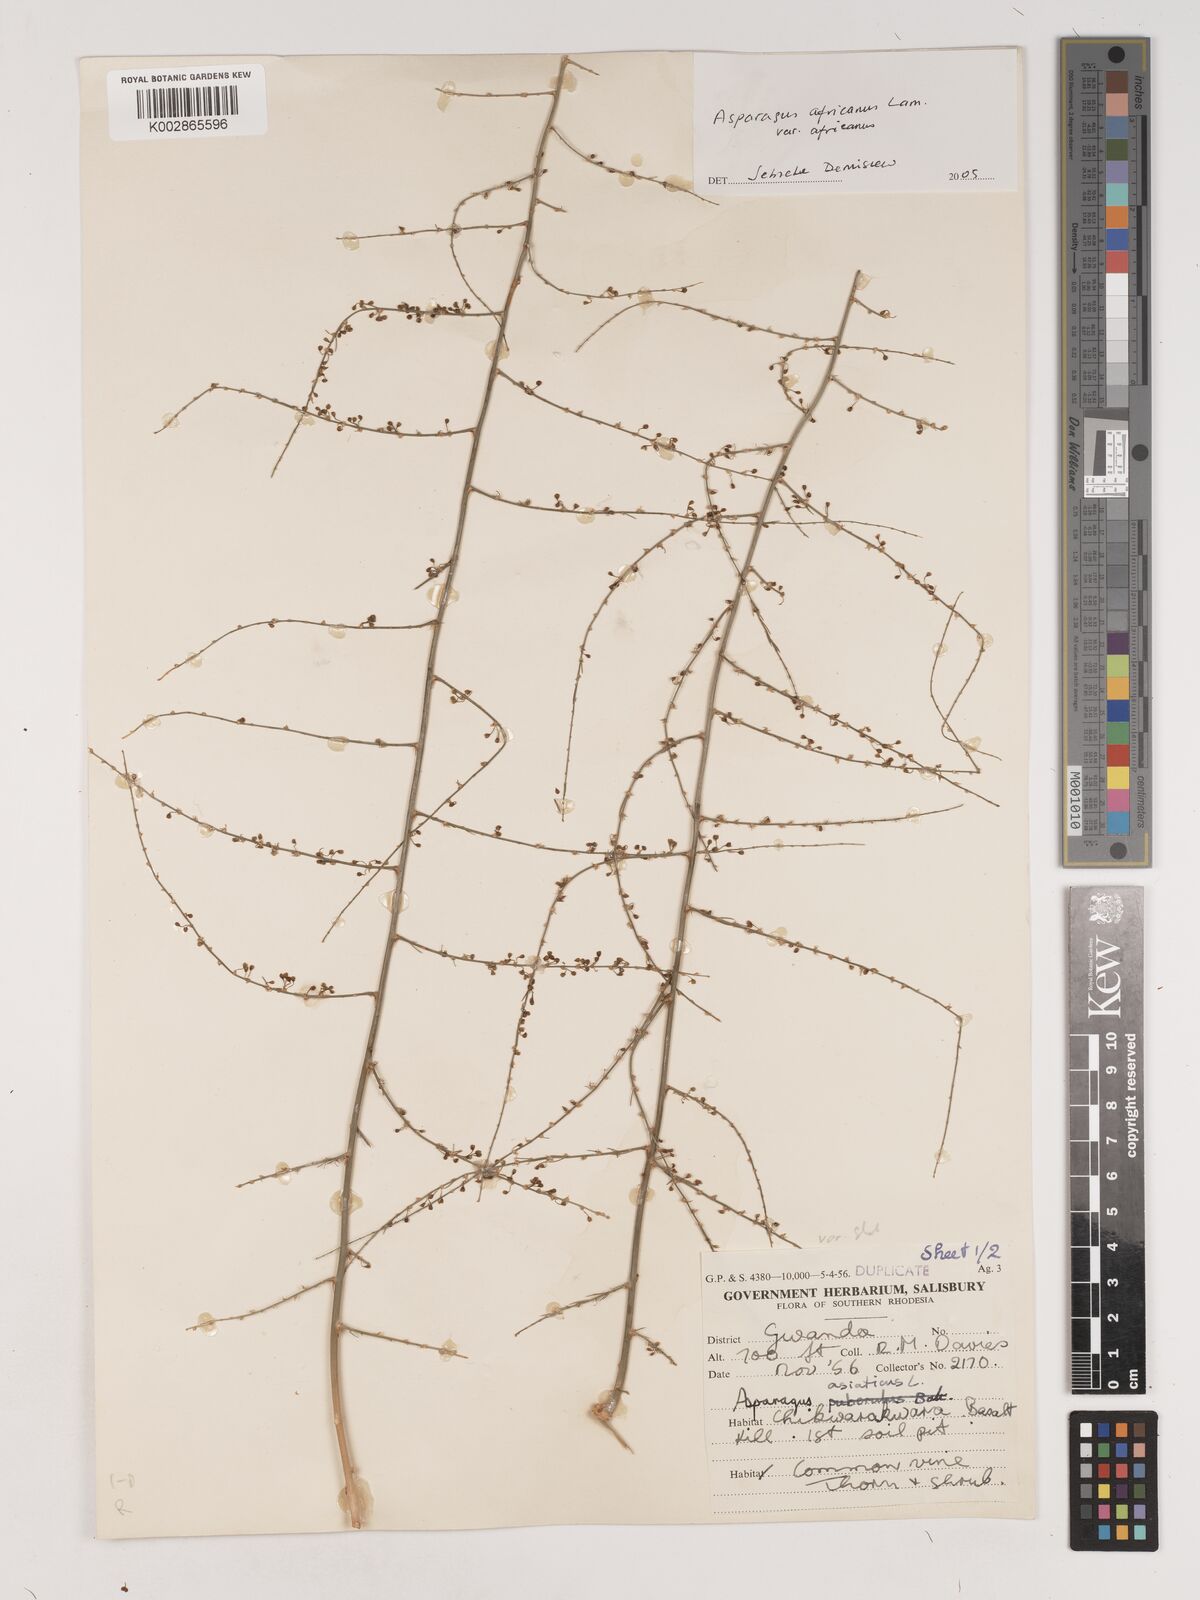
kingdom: Plantae
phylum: Tracheophyta
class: Liliopsida
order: Asparagales
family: Asparagaceae
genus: Asparagus
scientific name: Asparagus africanus
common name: Asparagus-fern
